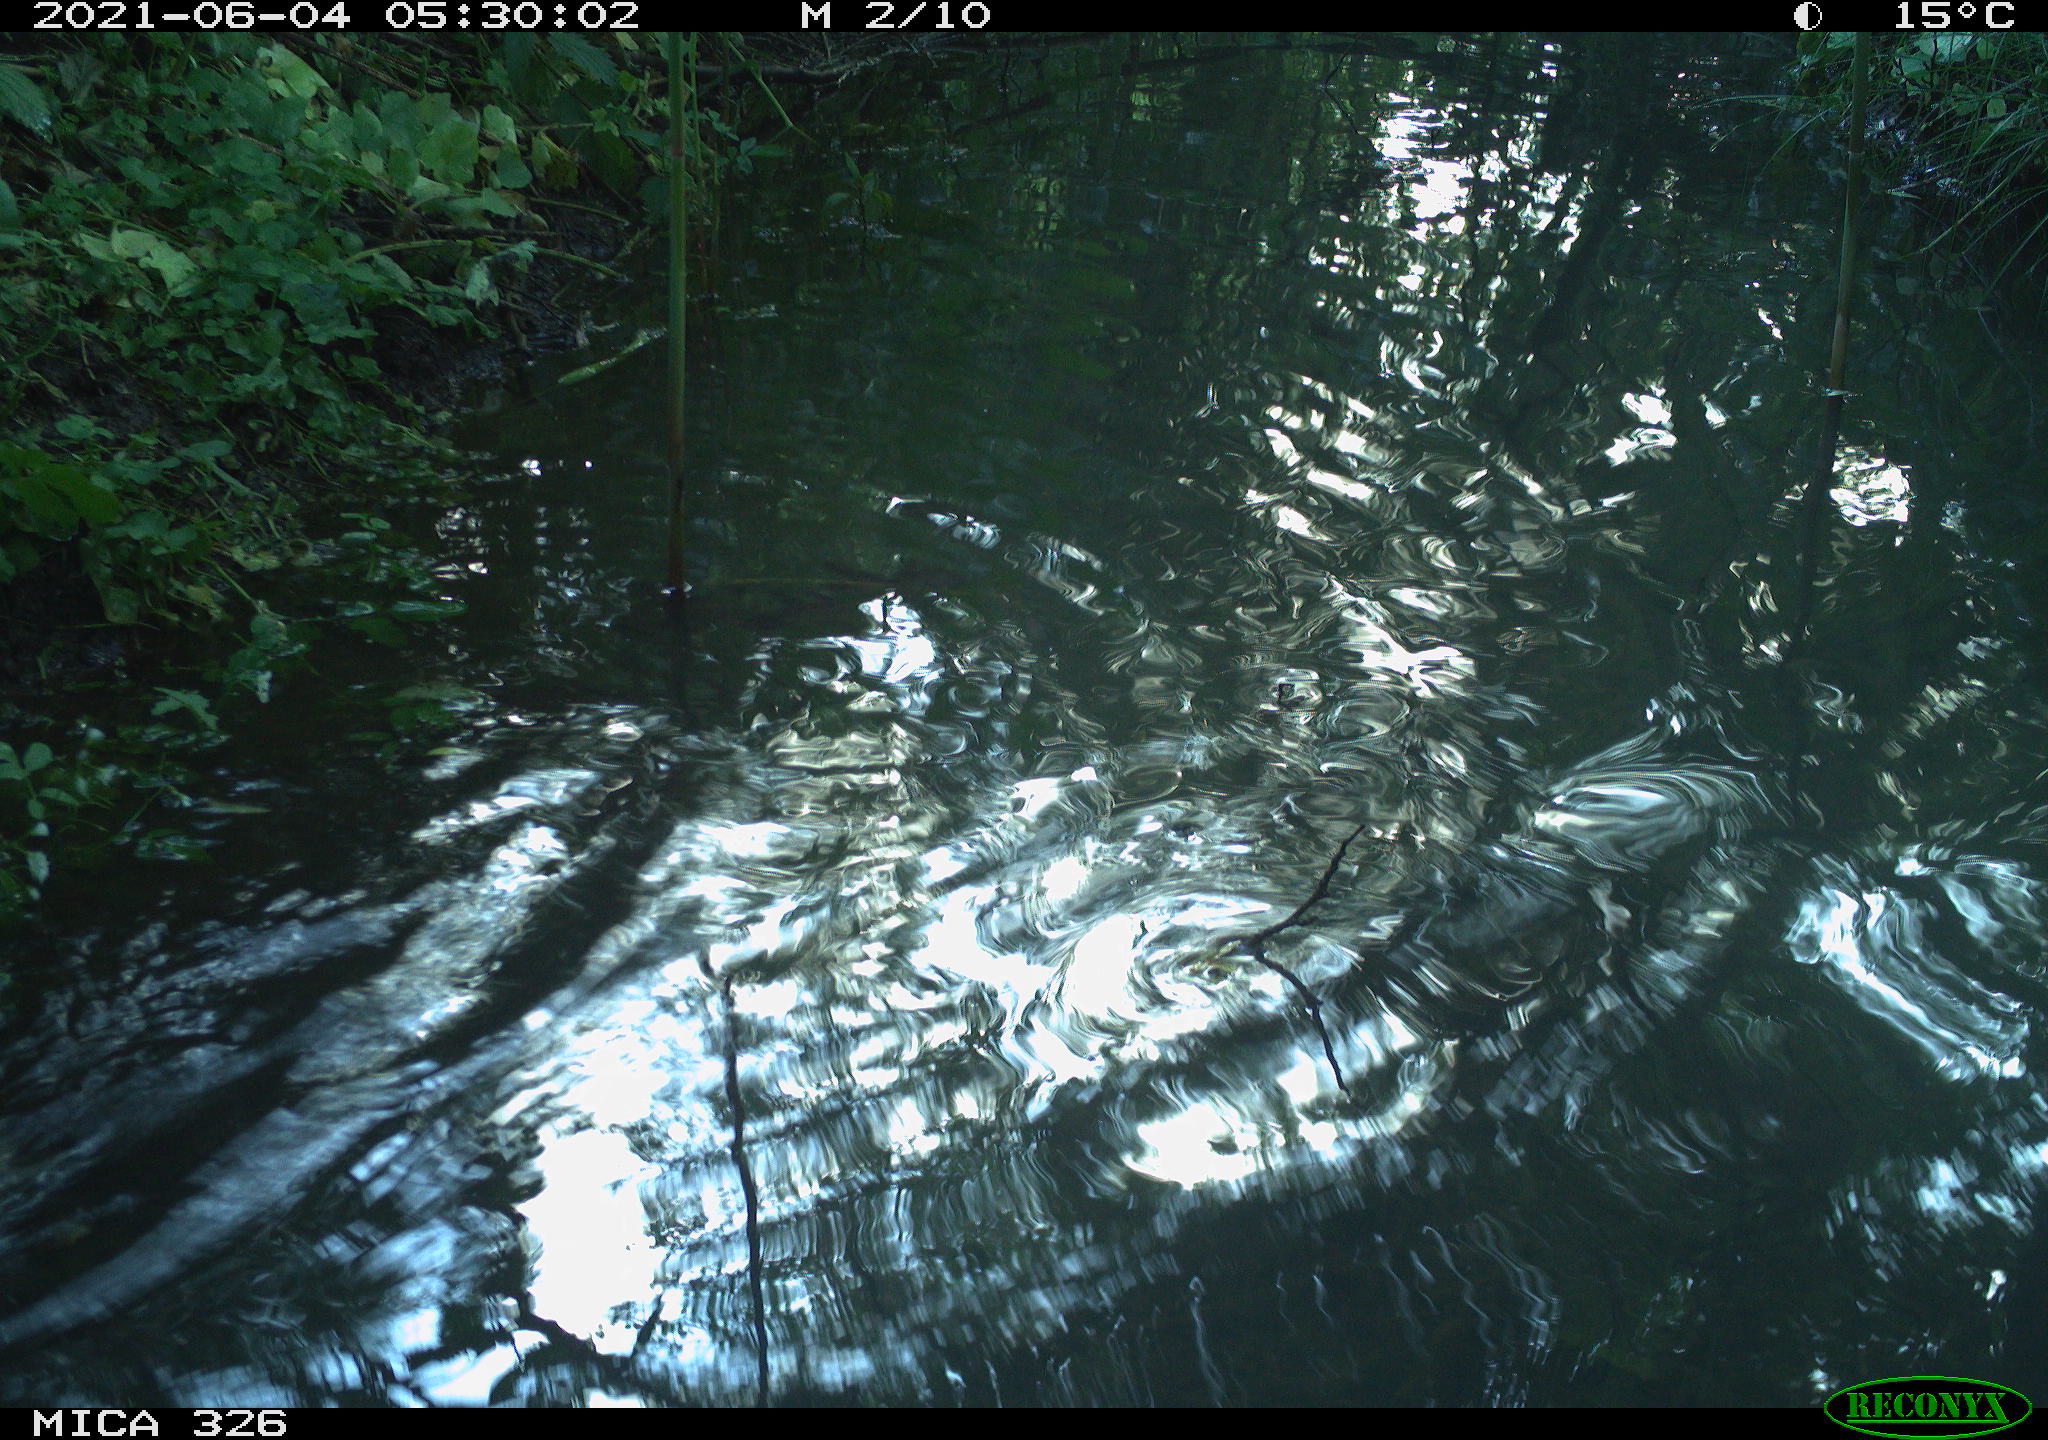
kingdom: Animalia
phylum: Chordata
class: Mammalia
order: Rodentia
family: Muridae
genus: Rattus
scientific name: Rattus norvegicus
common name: Brown rat
